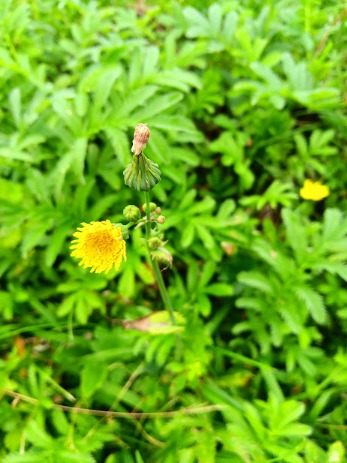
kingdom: Plantae
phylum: Tracheophyta
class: Magnoliopsida
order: Asterales
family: Asteraceae
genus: Sonchus
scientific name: Sonchus oleraceus
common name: Almindelig svinemælk
